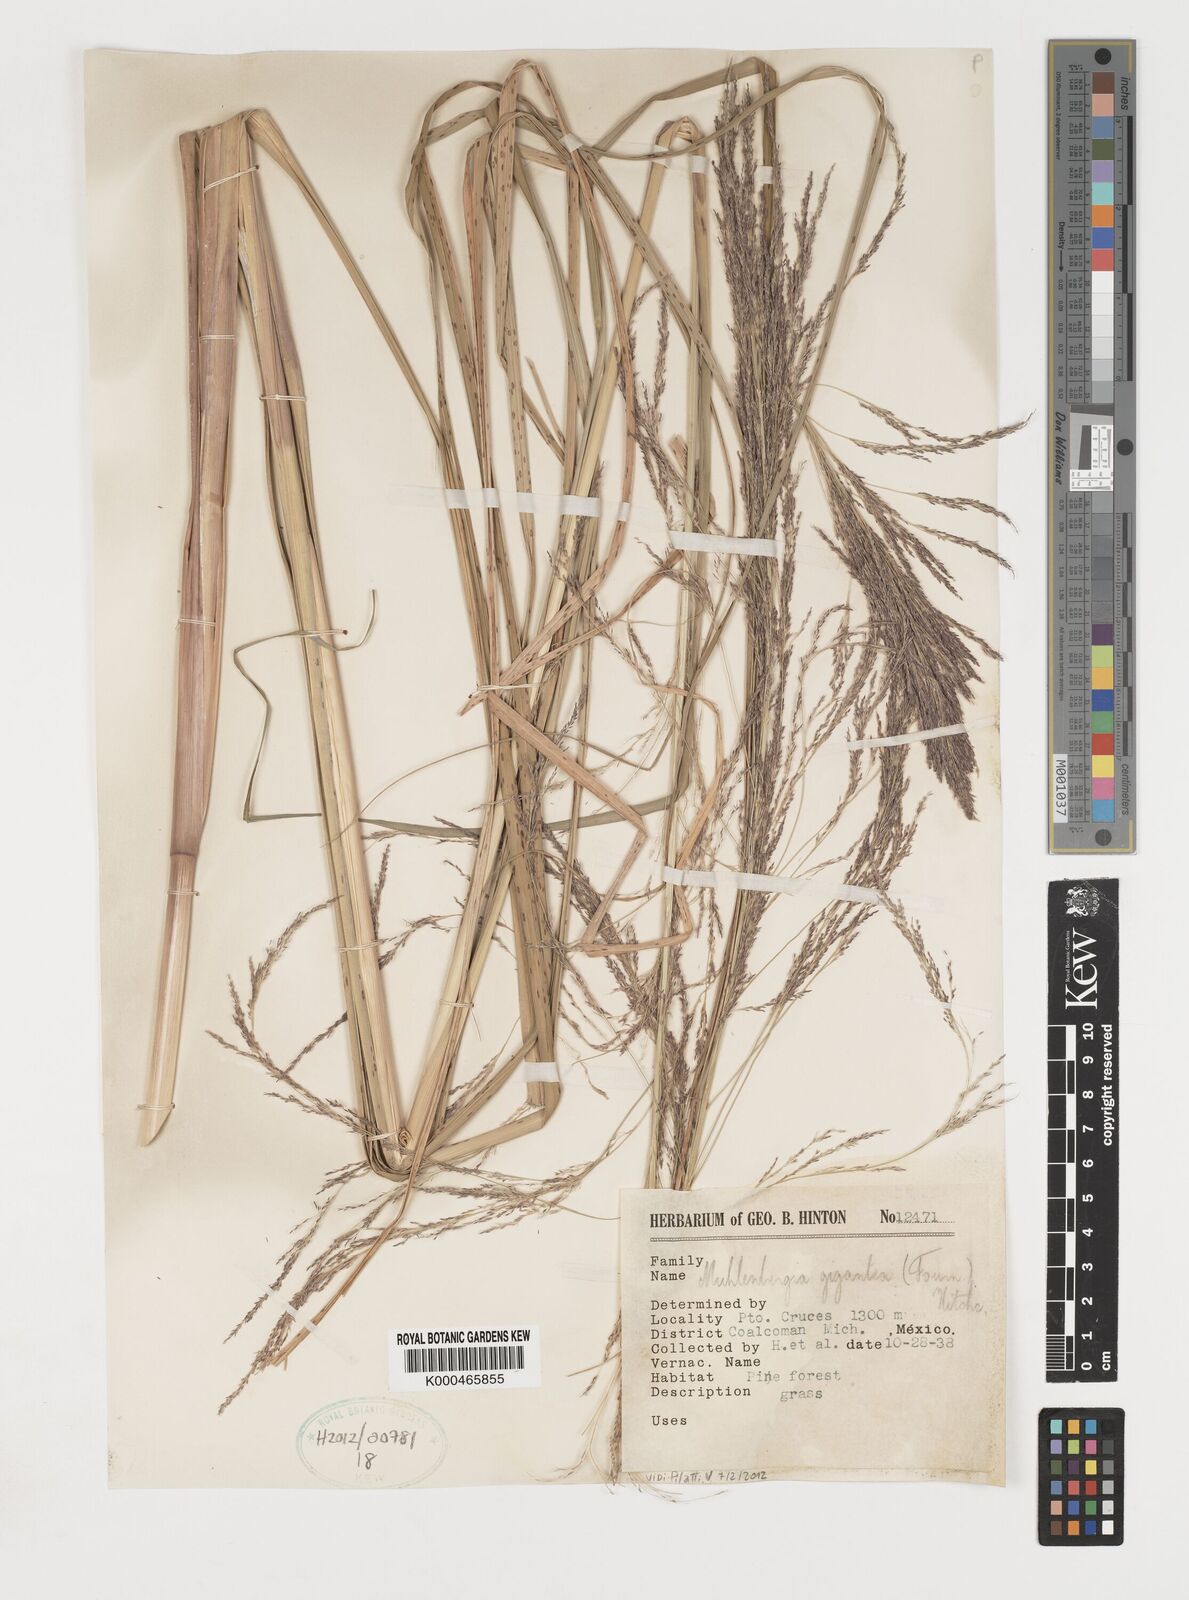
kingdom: Plantae
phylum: Tracheophyta
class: Liliopsida
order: Poales
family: Poaceae
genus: Muhlenbergia
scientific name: Muhlenbergia gigantea
